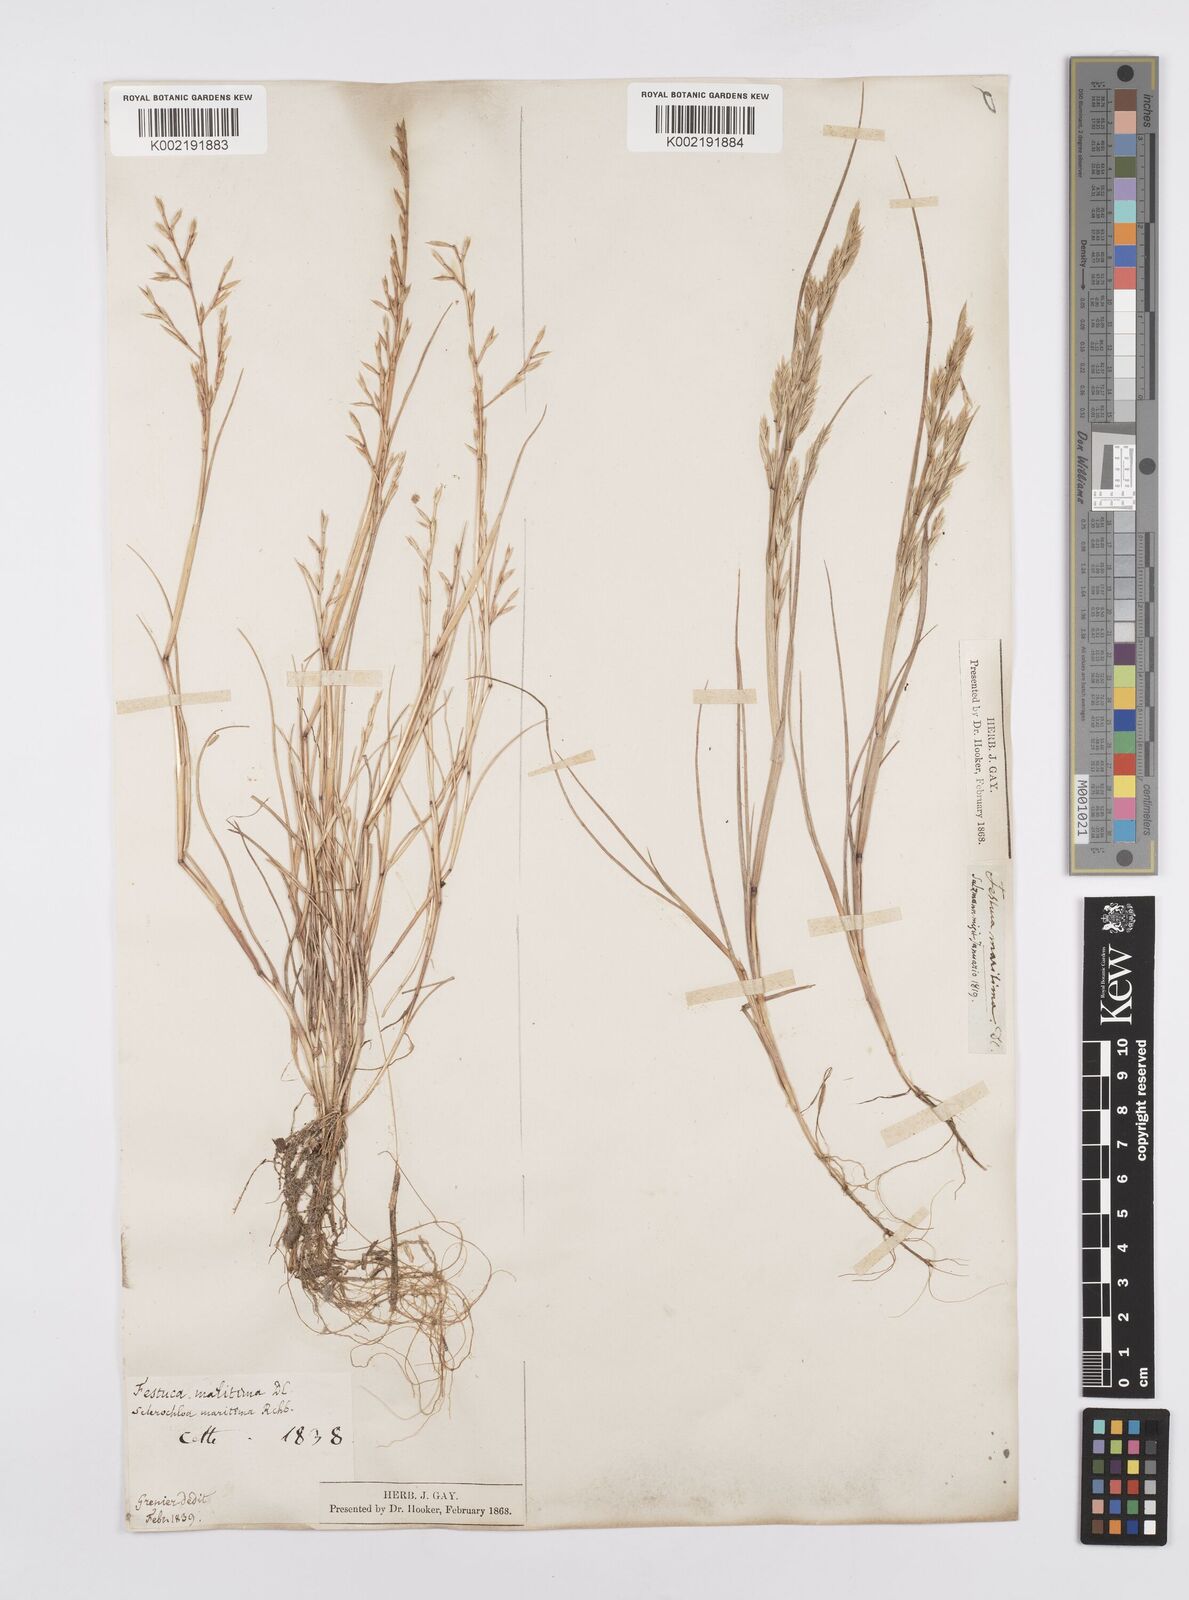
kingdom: Plantae
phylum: Tracheophyta
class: Liliopsida
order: Poales
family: Poaceae
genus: Cutandia
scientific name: Cutandia maritima
